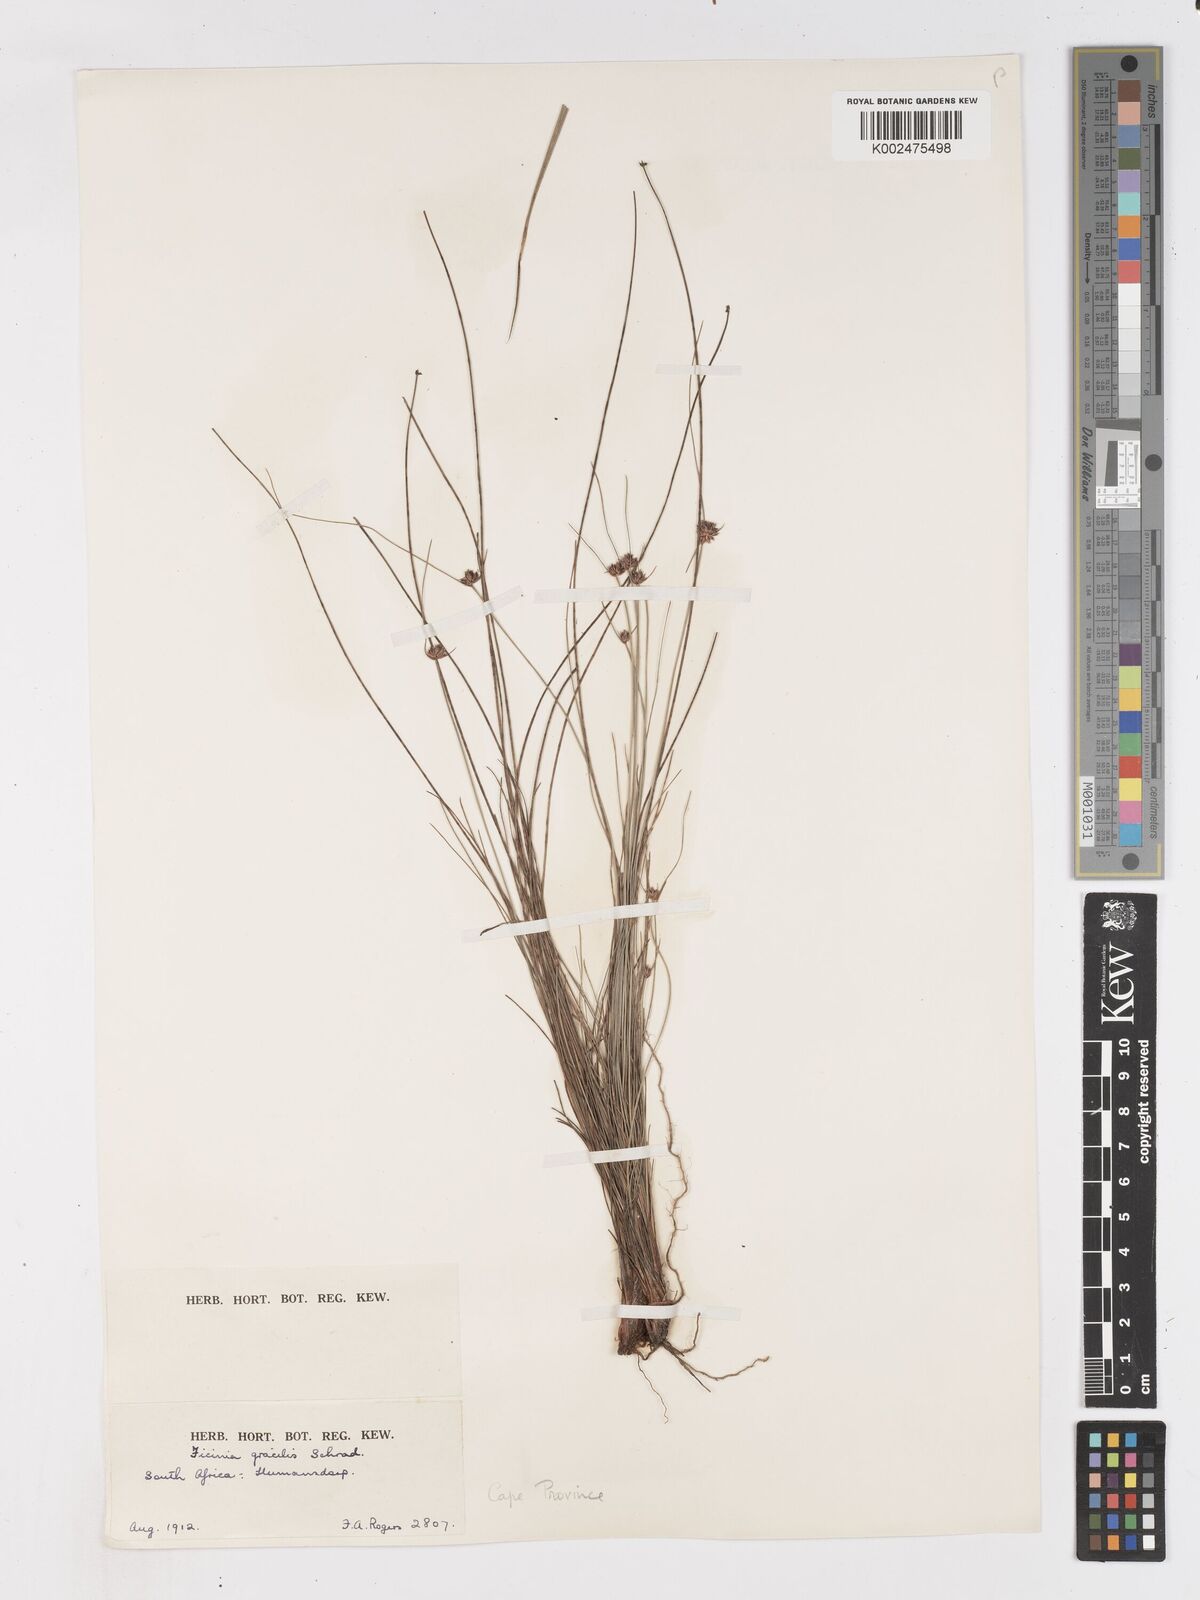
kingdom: Plantae
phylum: Tracheophyta
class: Liliopsida
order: Poales
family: Cyperaceae
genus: Ficinia
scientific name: Ficinia gracilis
